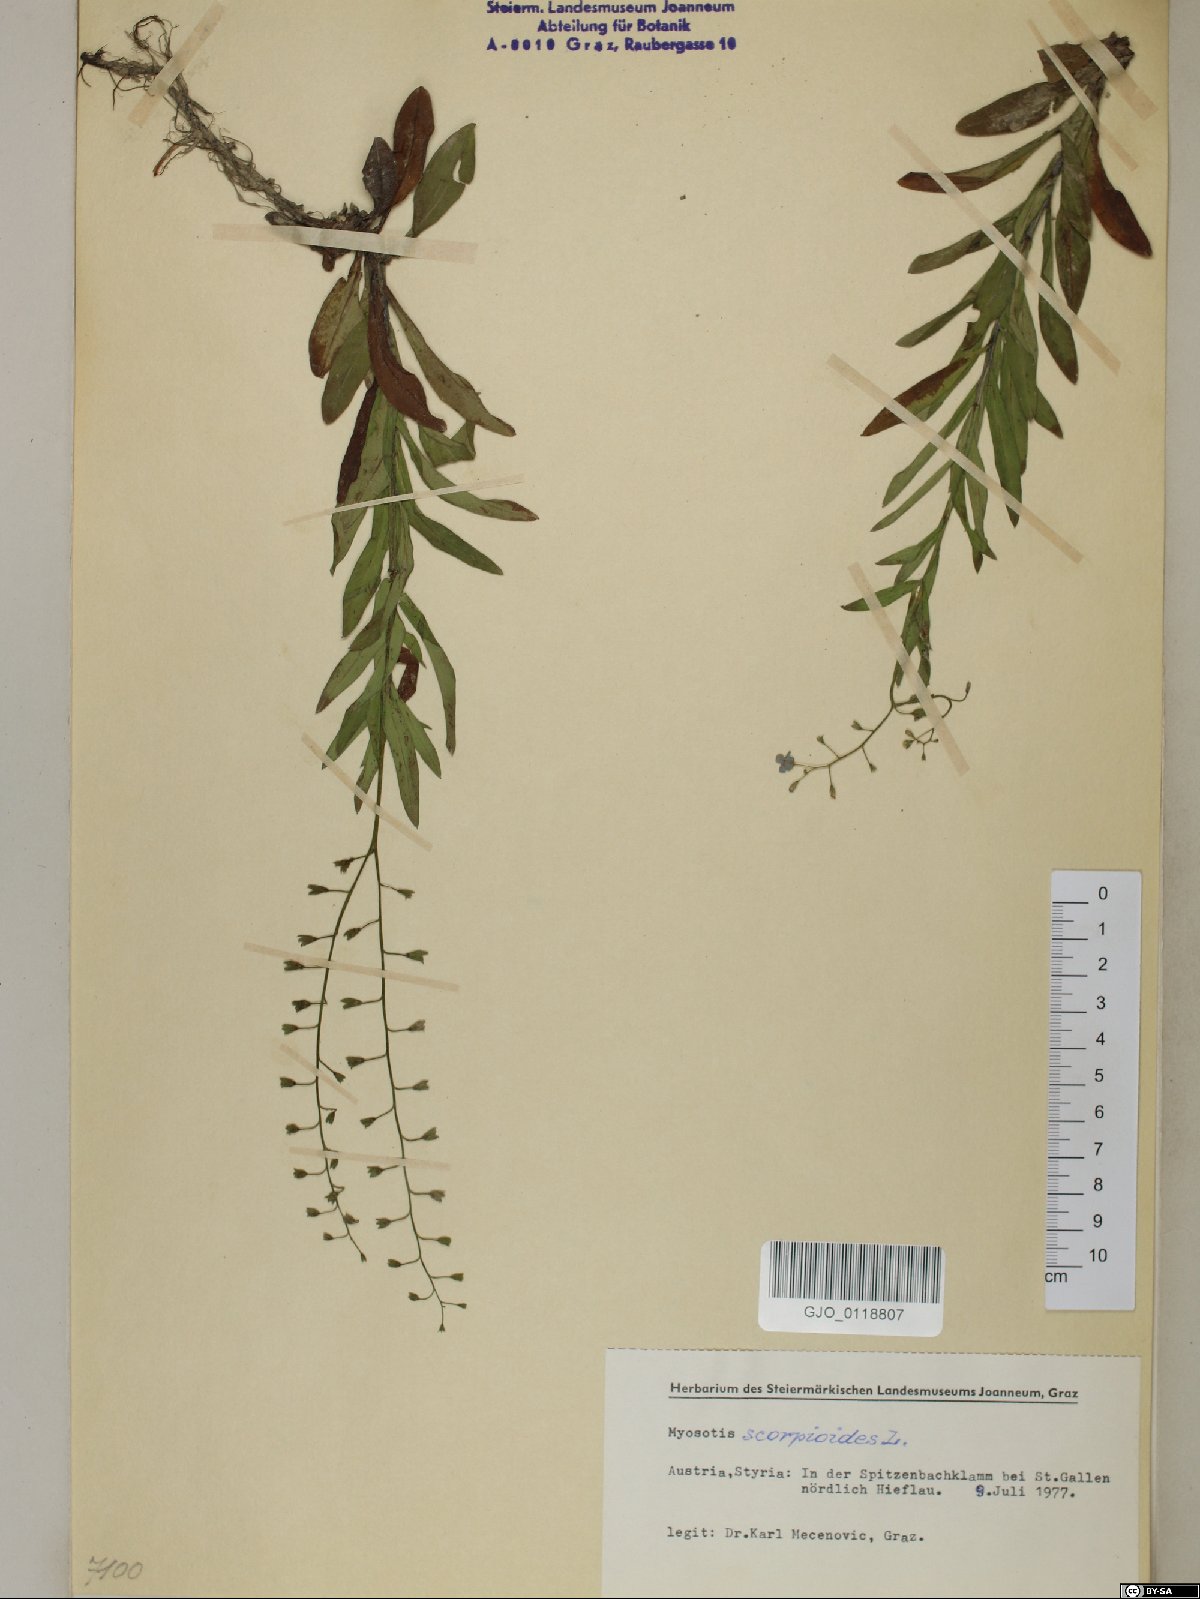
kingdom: Plantae
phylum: Tracheophyta
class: Magnoliopsida
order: Boraginales
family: Boraginaceae
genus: Myosotis
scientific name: Myosotis scorpioides
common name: Water forget-me-not
